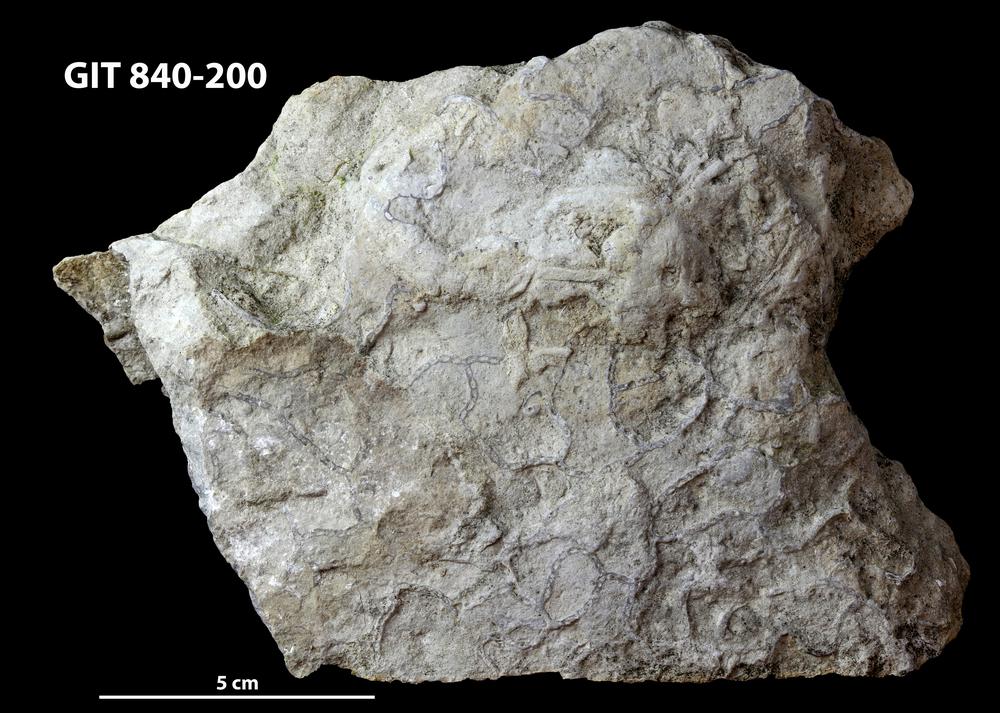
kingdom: Animalia
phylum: Cnidaria
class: Anthozoa
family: Cateniporidae
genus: Catenipora
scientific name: Catenipora
